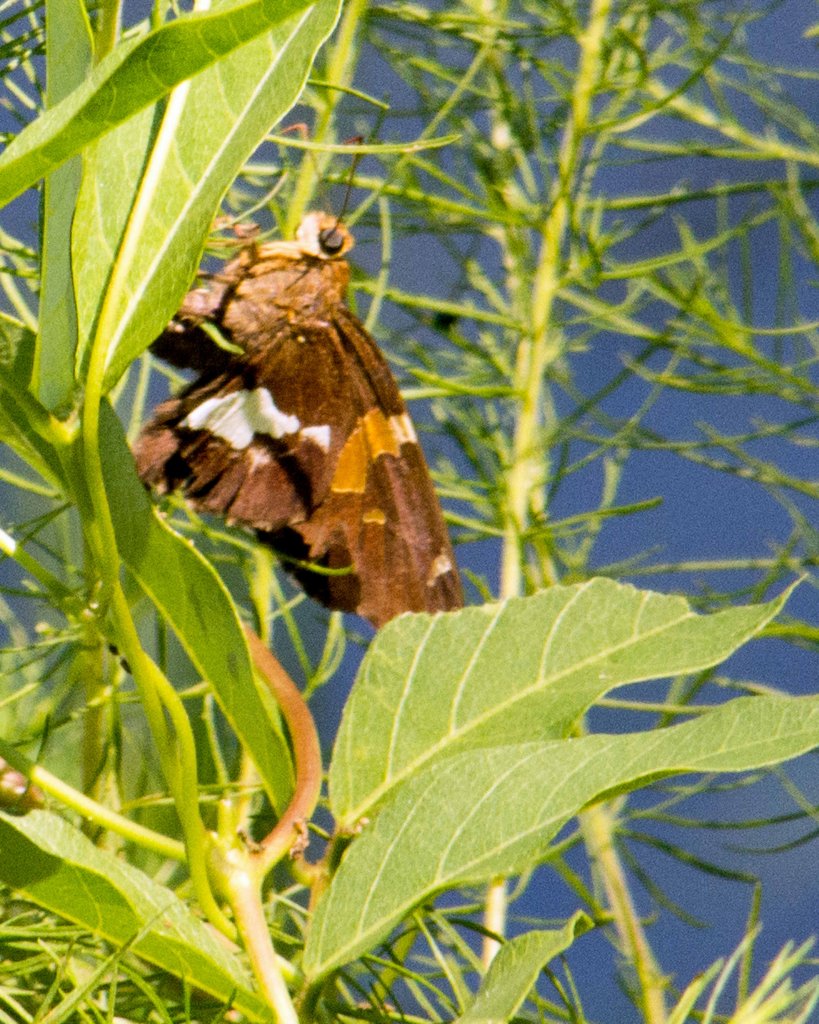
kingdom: Animalia
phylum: Arthropoda
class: Insecta
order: Lepidoptera
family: Hesperiidae
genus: Epargyreus
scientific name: Epargyreus clarus
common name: Silver-spotted Skipper
